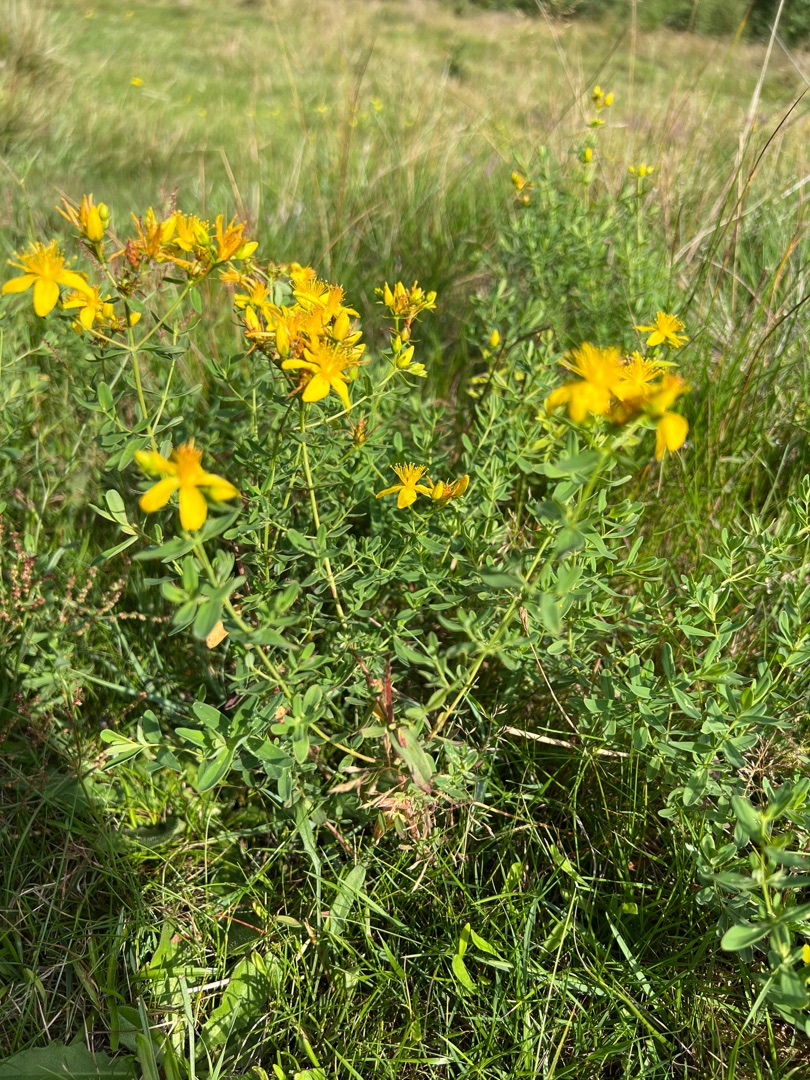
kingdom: Plantae
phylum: Tracheophyta
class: Magnoliopsida
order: Malpighiales
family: Hypericaceae
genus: Hypericum
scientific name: Hypericum perforatum
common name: Prikbladet perikon
